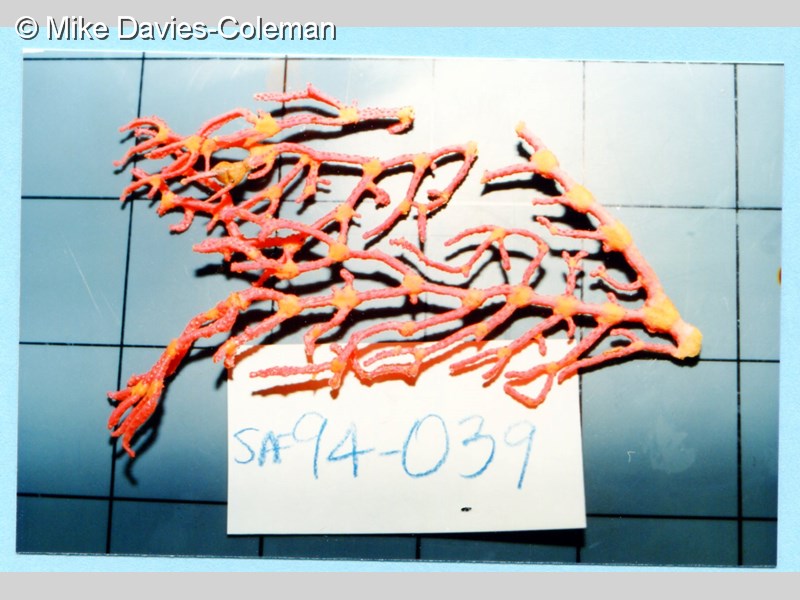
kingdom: Animalia
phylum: Cnidaria
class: Anthozoa
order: Malacalcyonacea
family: Melithaeidae
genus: Melithaea
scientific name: Melithaea
